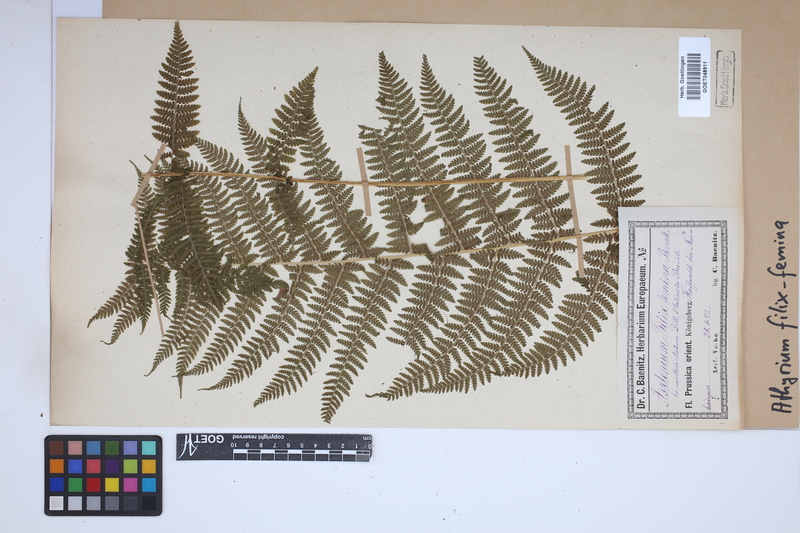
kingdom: Plantae
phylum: Tracheophyta
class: Polypodiopsida
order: Polypodiales
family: Athyriaceae
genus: Athyrium
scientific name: Athyrium filix-femina
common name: Lady fern
